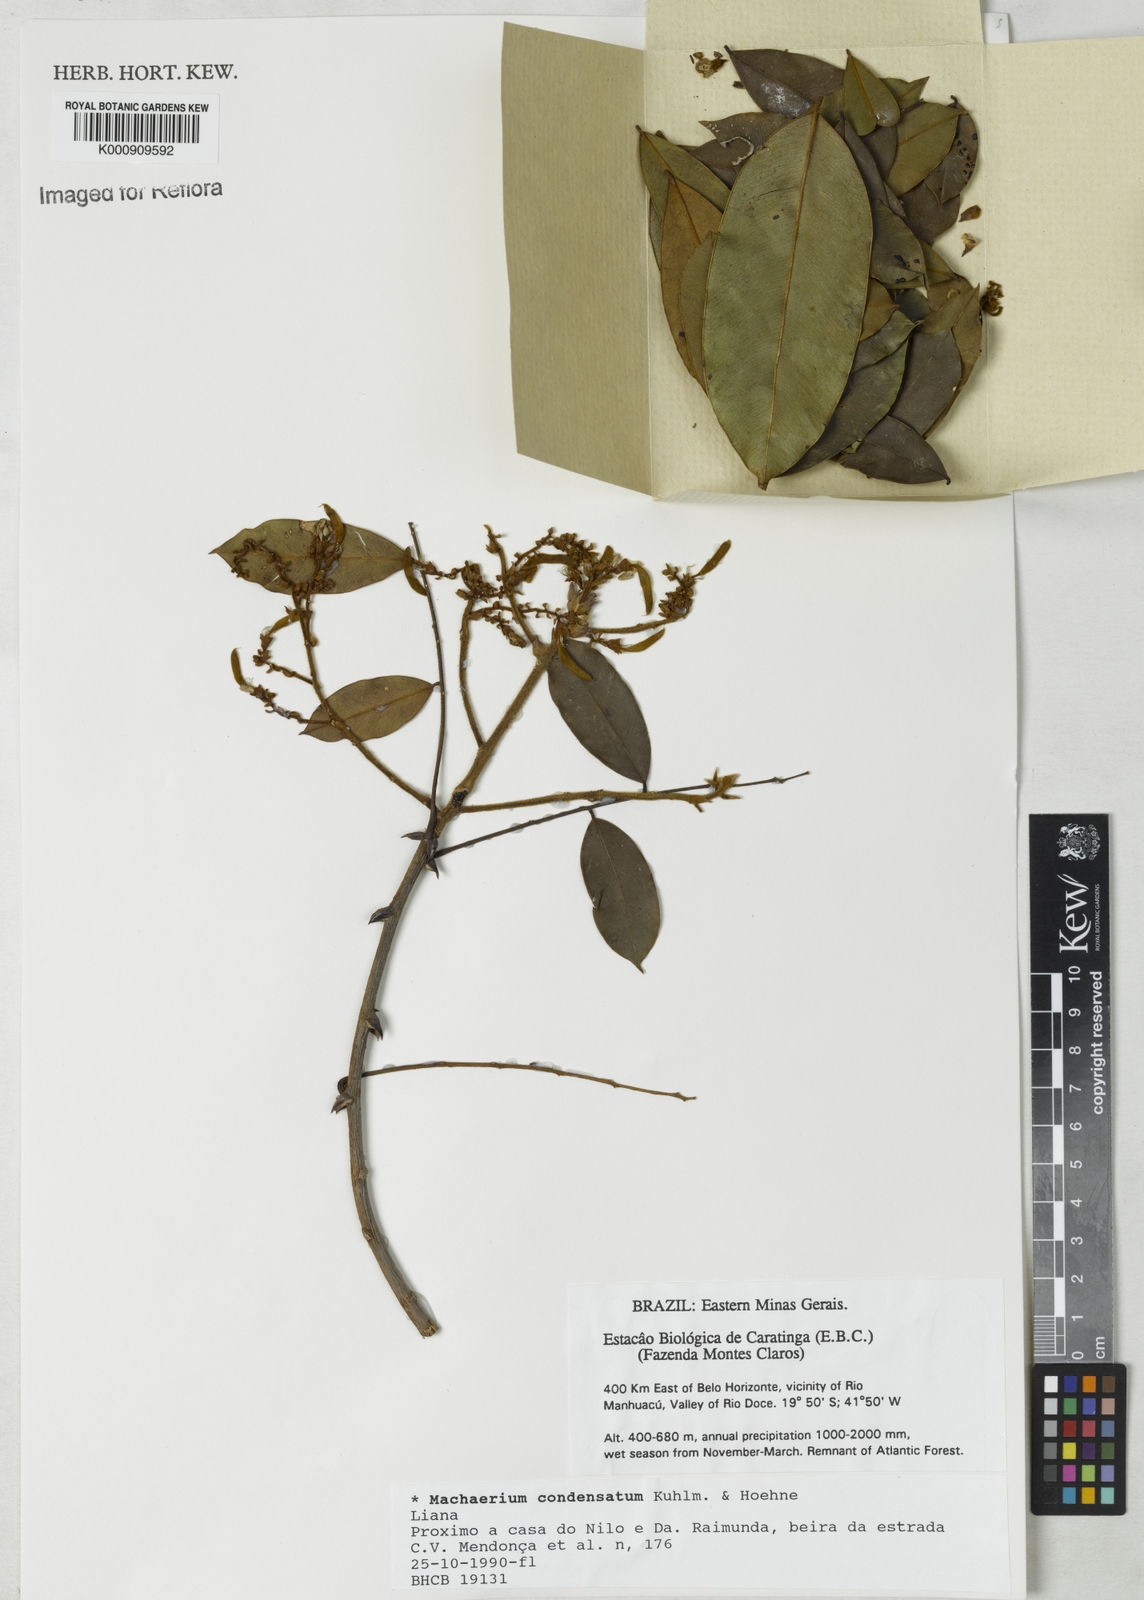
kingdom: Plantae
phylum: Tracheophyta
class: Magnoliopsida
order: Fabales
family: Fabaceae
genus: Machaerium
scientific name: Machaerium condensatum
